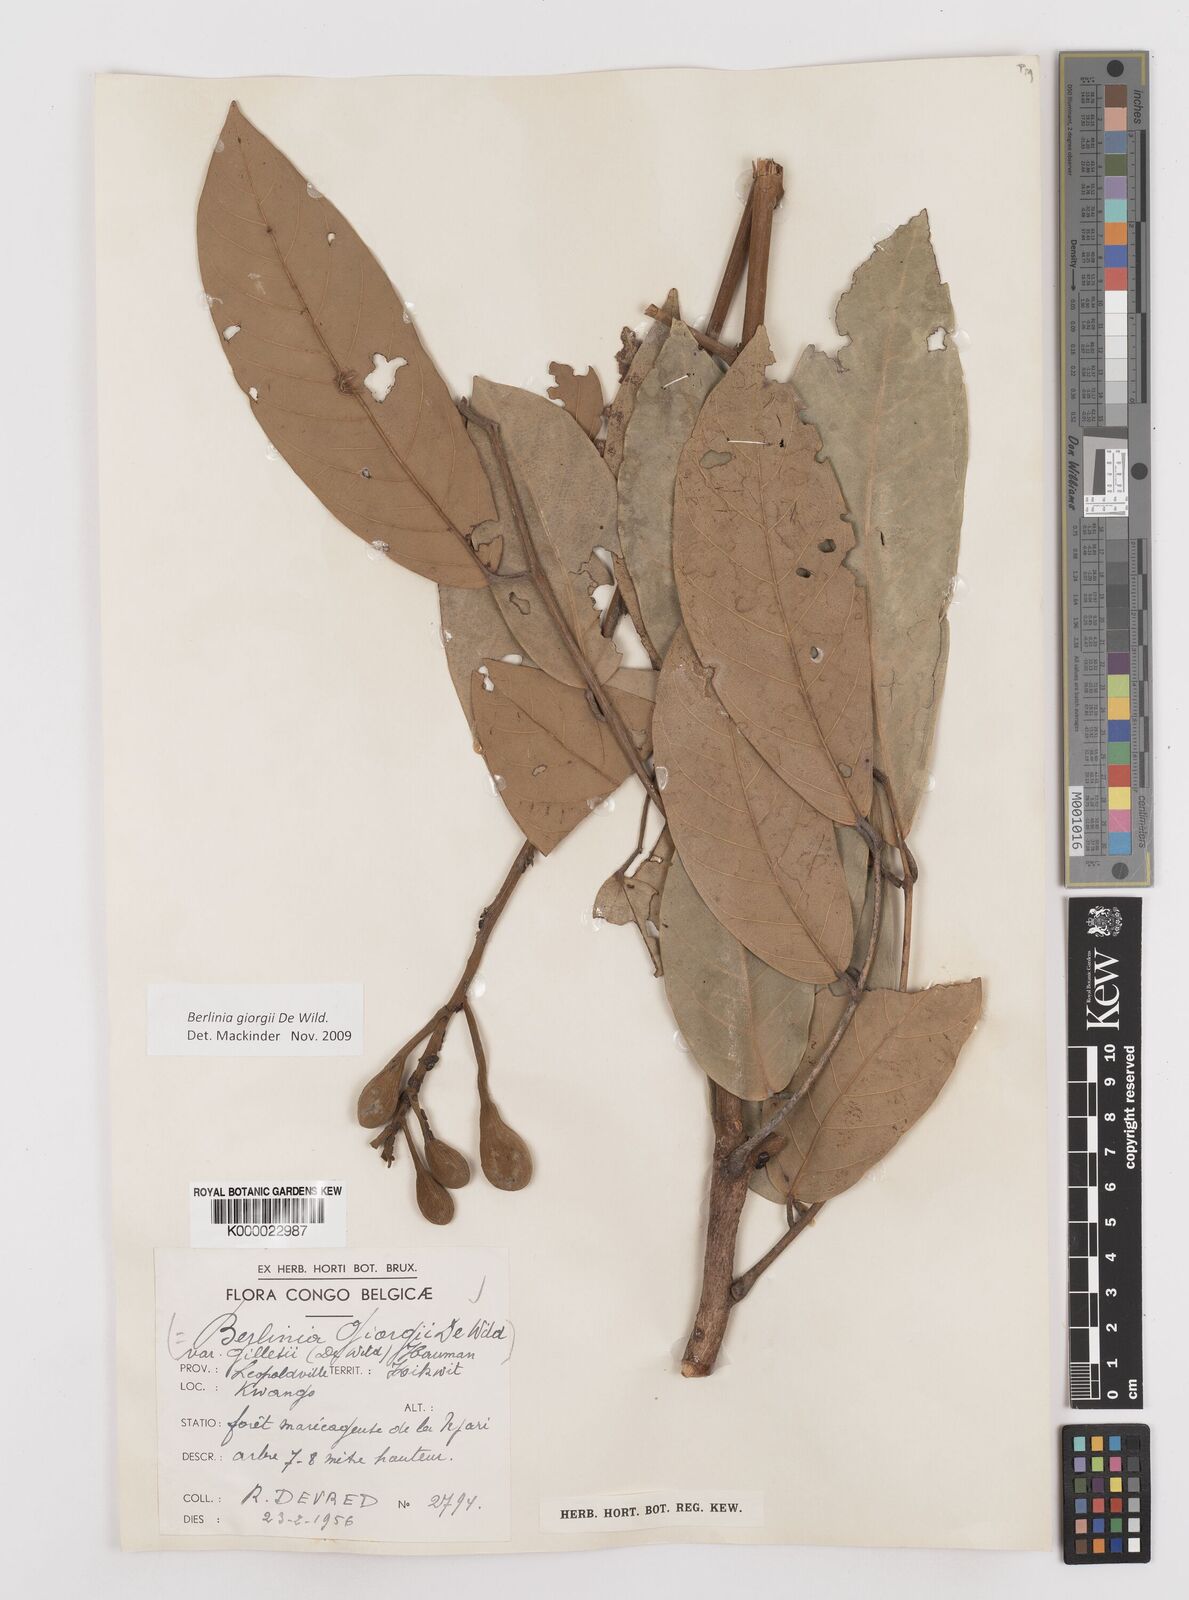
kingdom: Plantae
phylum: Tracheophyta
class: Magnoliopsida
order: Fabales
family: Fabaceae
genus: Berlinia
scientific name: Berlinia bruneelii
